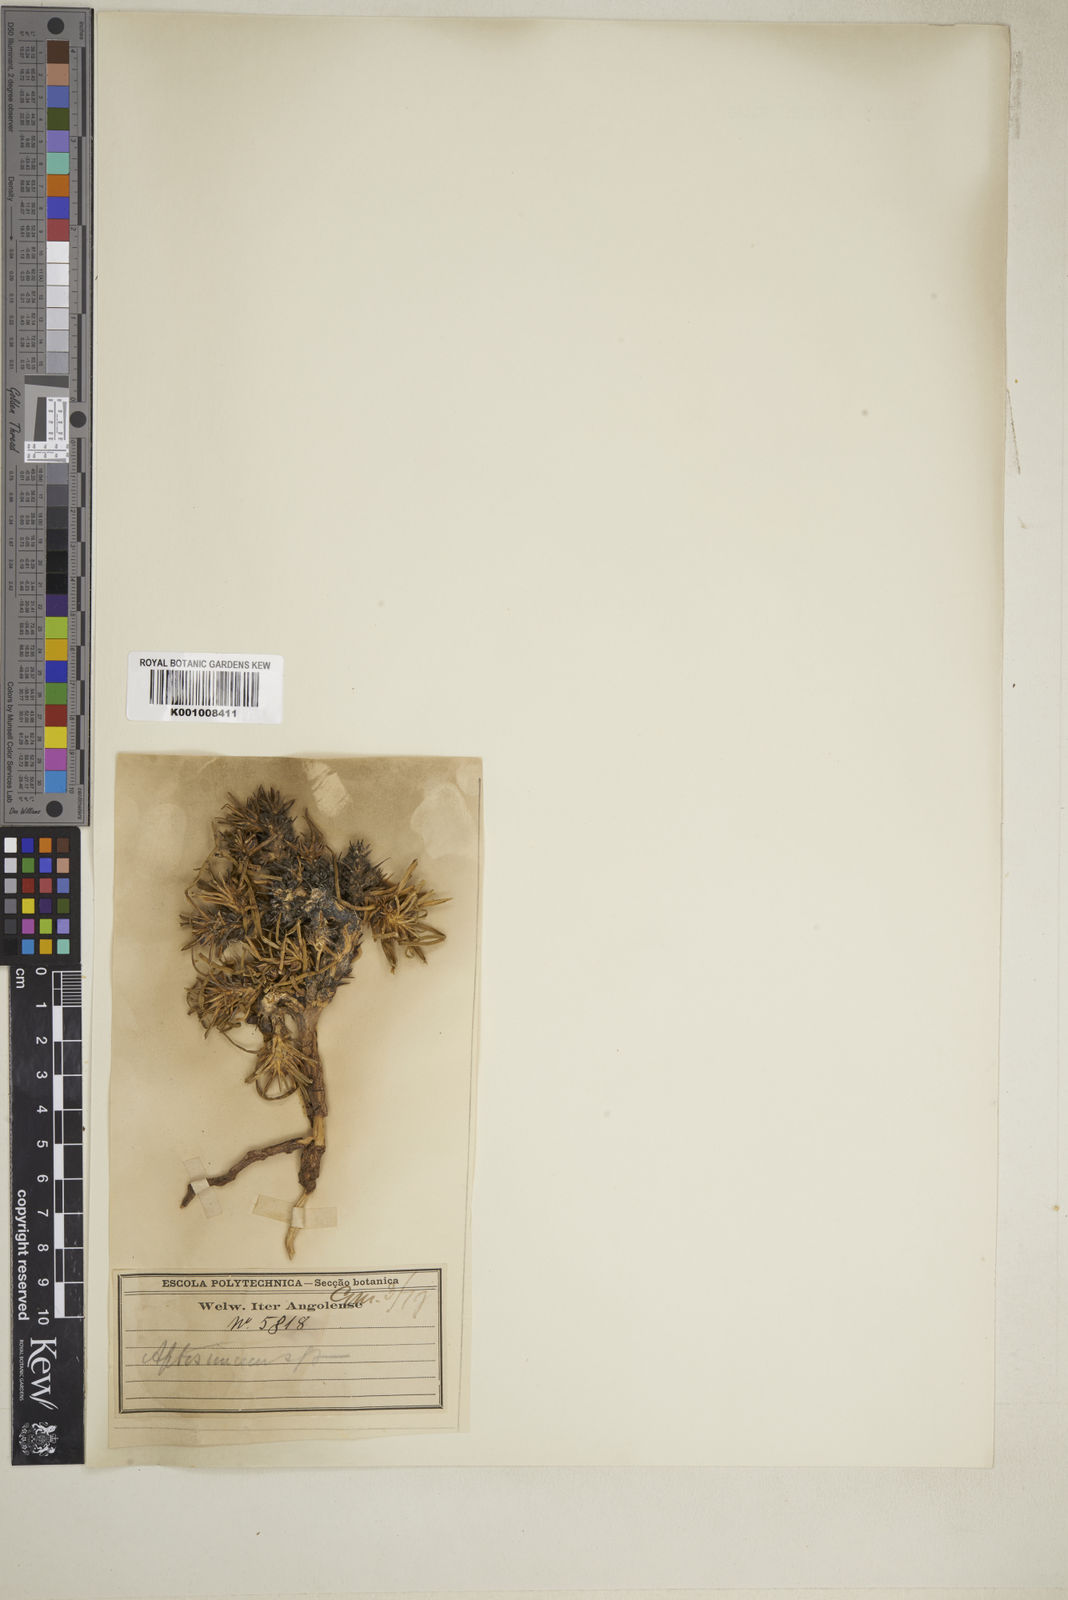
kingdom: Plantae
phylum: Tracheophyta
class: Magnoliopsida
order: Lamiales
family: Scrophulariaceae
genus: Aptosimum
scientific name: Aptosimum lineare
